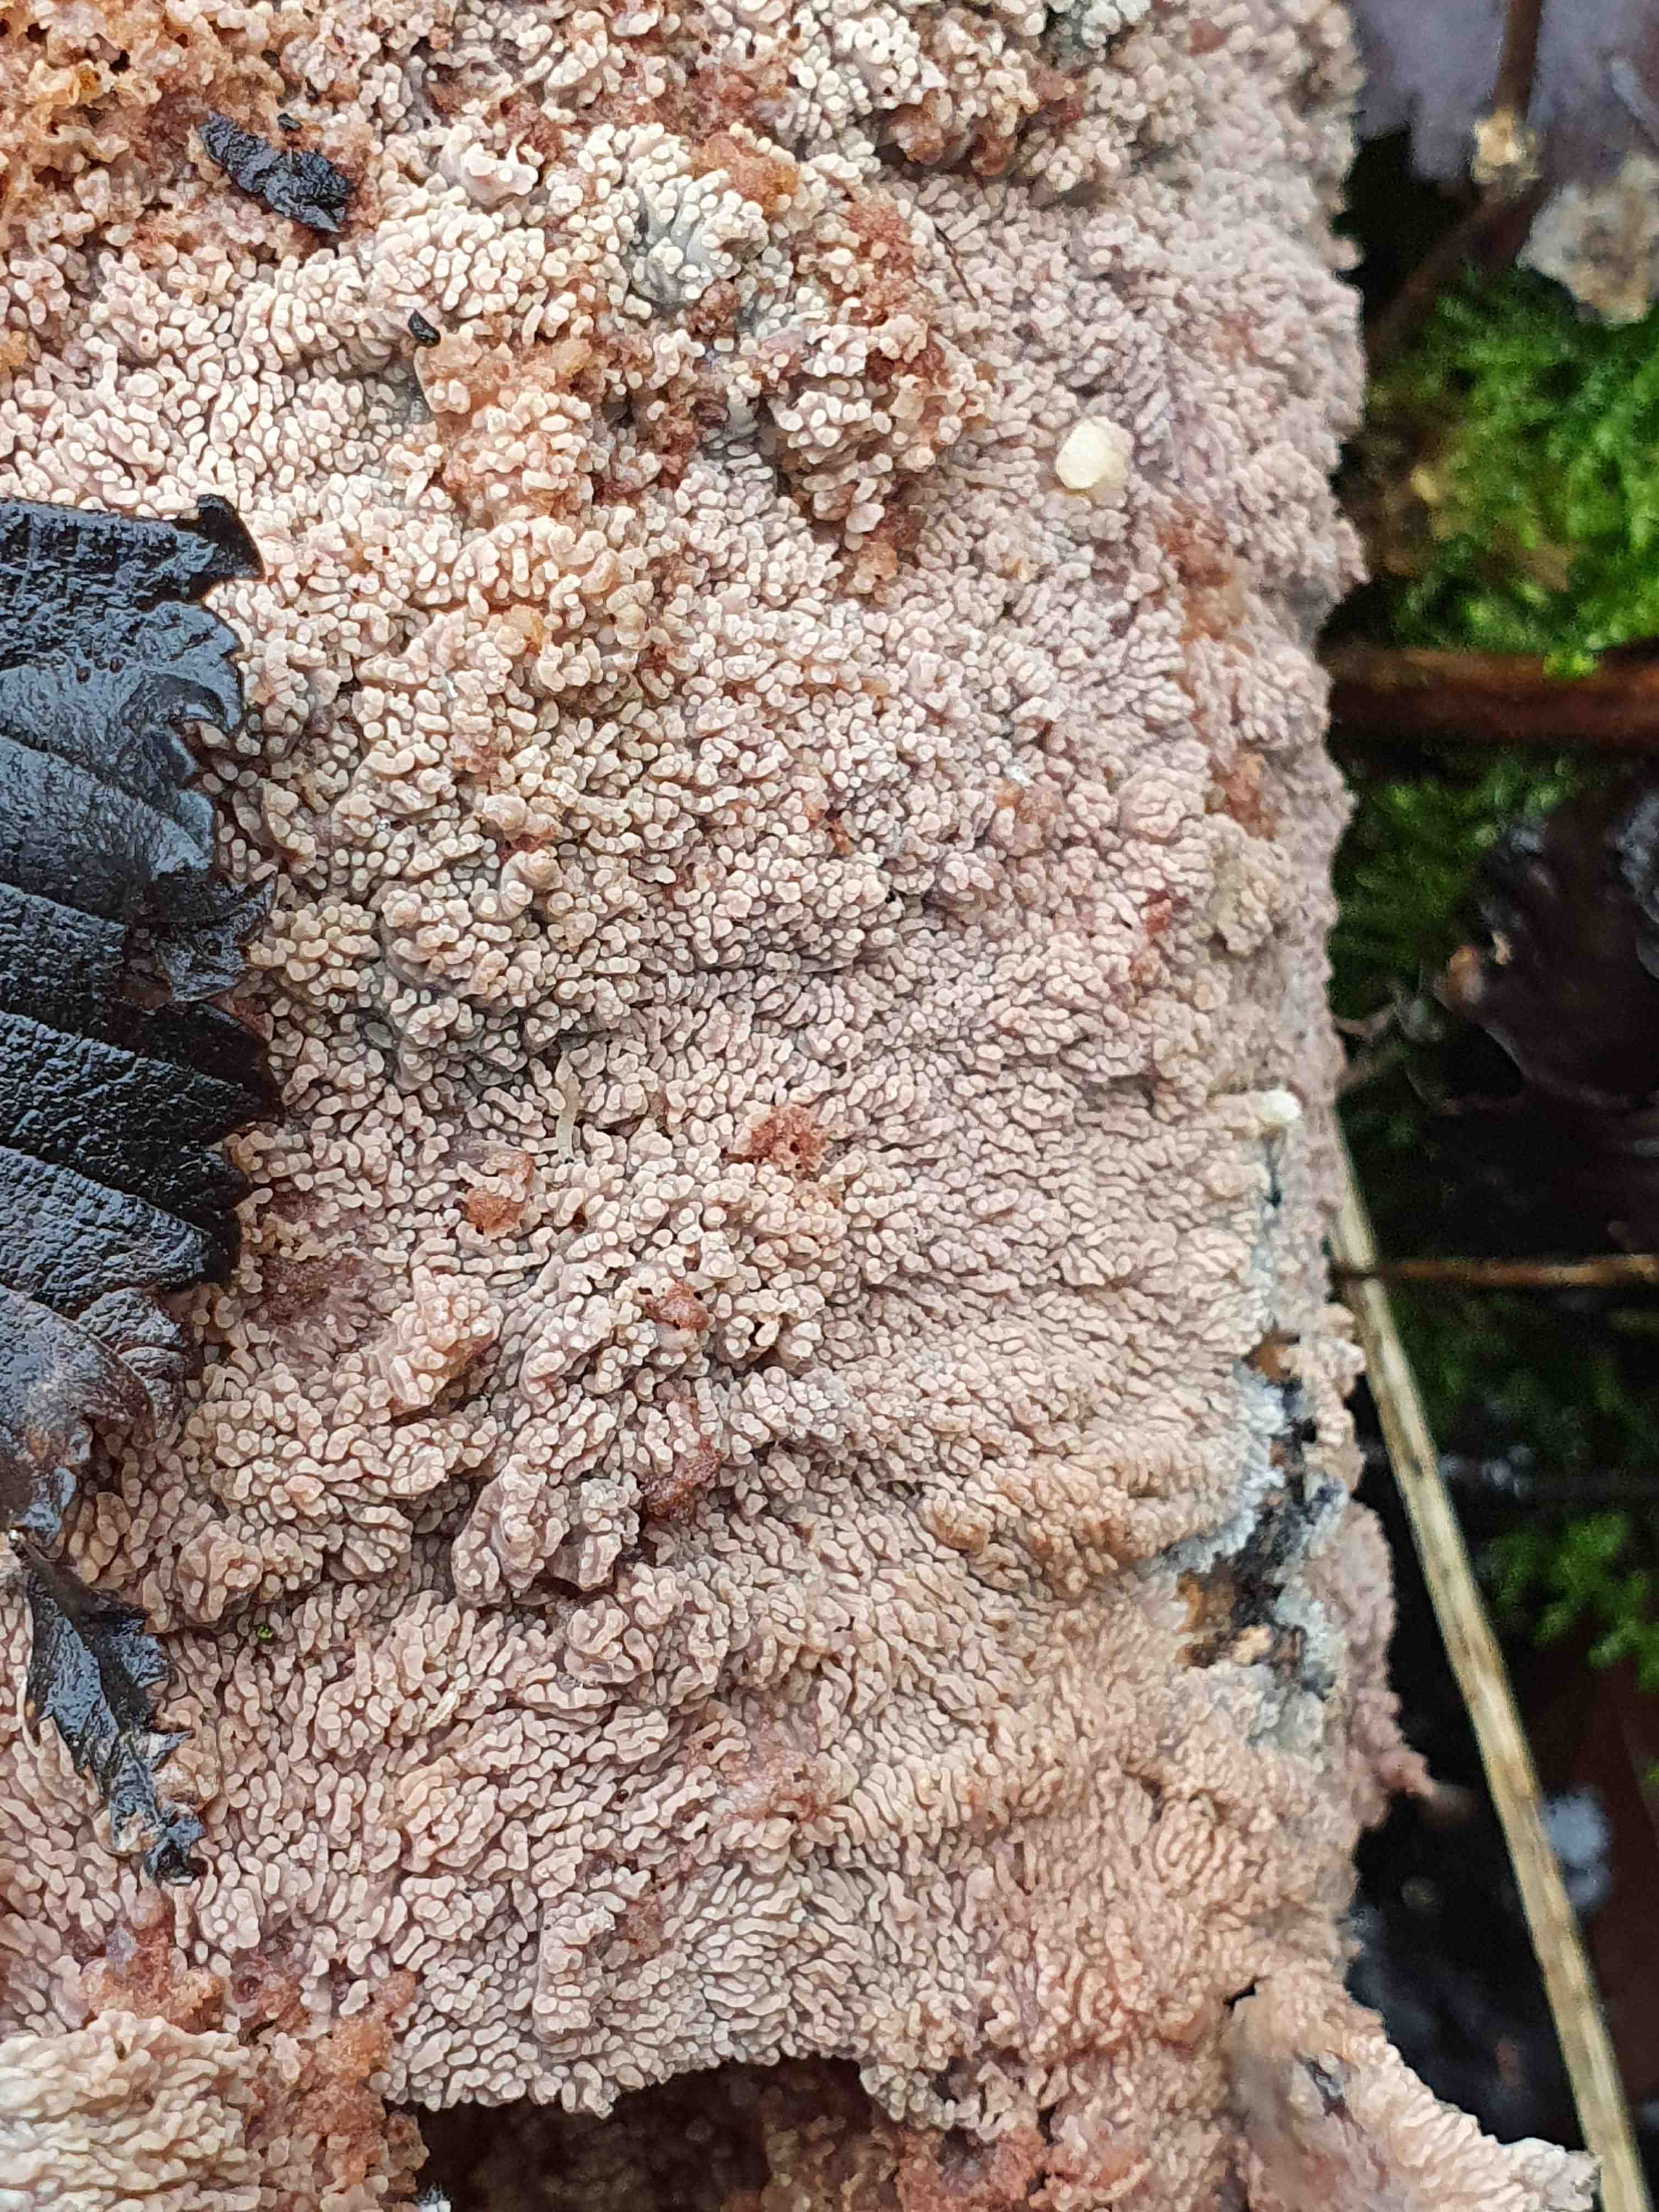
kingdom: Fungi
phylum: Basidiomycota
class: Agaricomycetes
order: Polyporales
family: Meruliaceae
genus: Phlebia
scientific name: Phlebia radiata
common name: stråle-åresvamp
